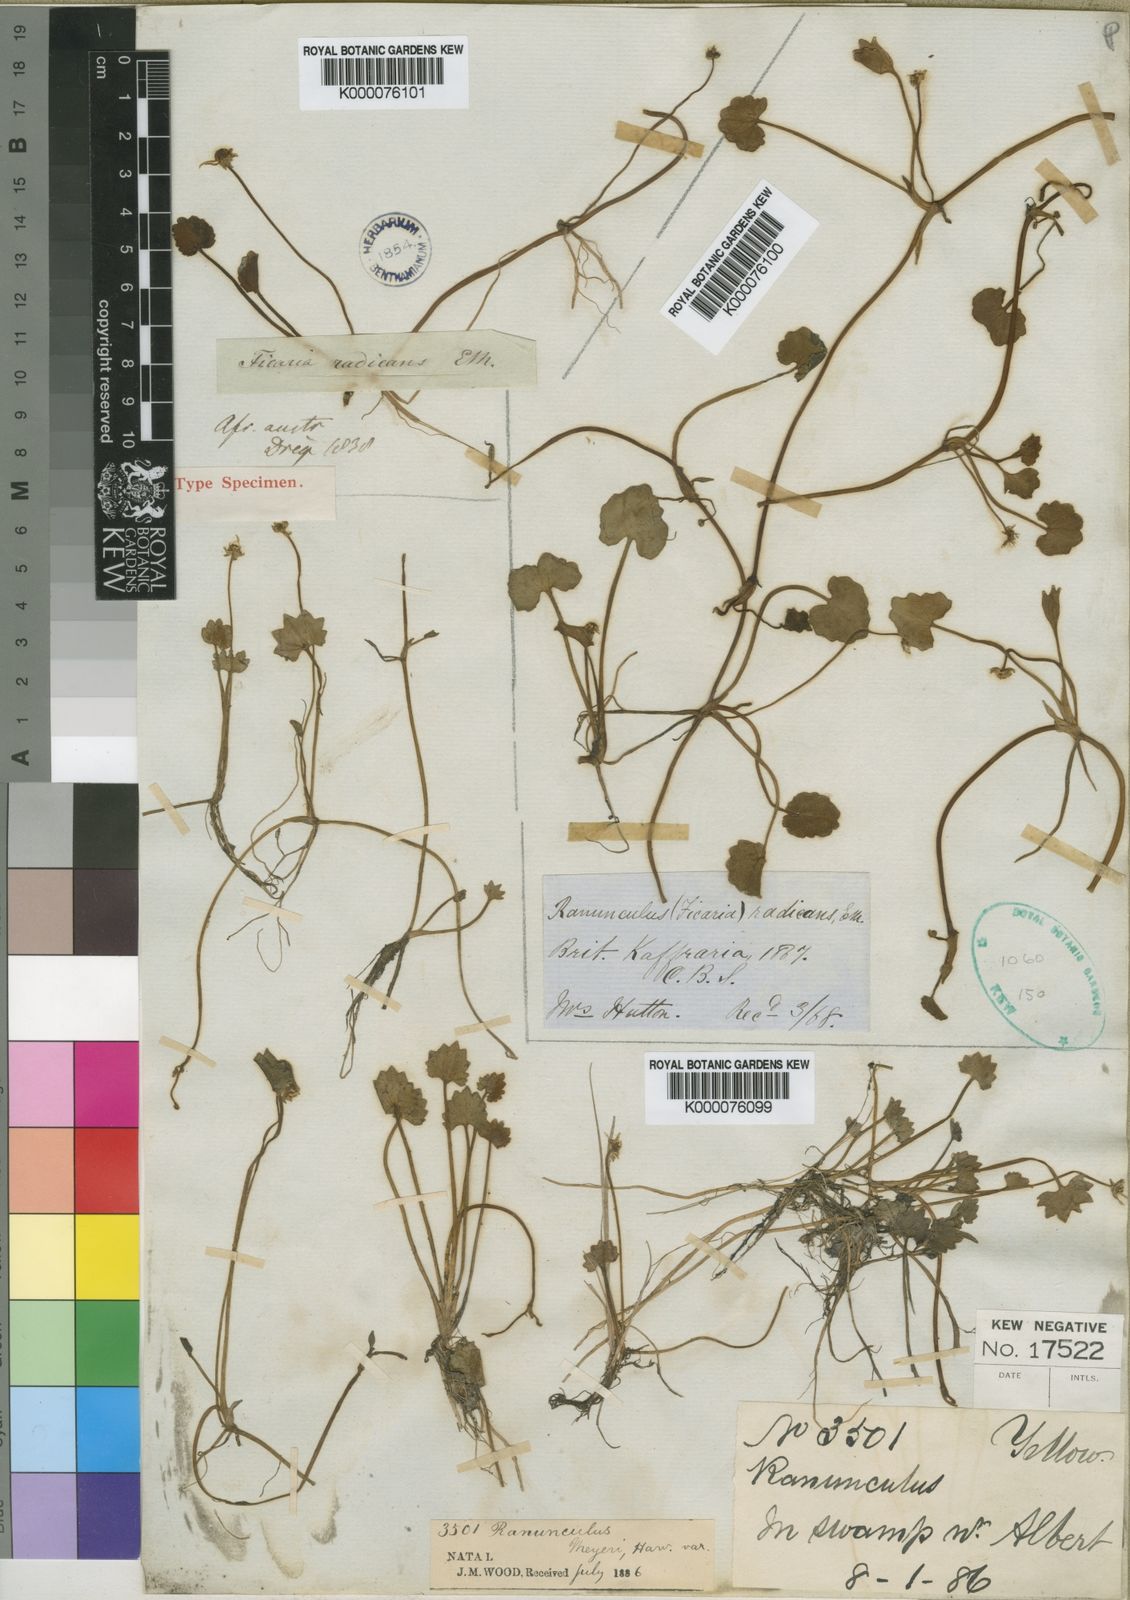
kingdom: Plantae
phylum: Tracheophyta
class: Magnoliopsida
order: Ranunculales
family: Ranunculaceae
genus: Ranunculus
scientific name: Ranunculus dregei
